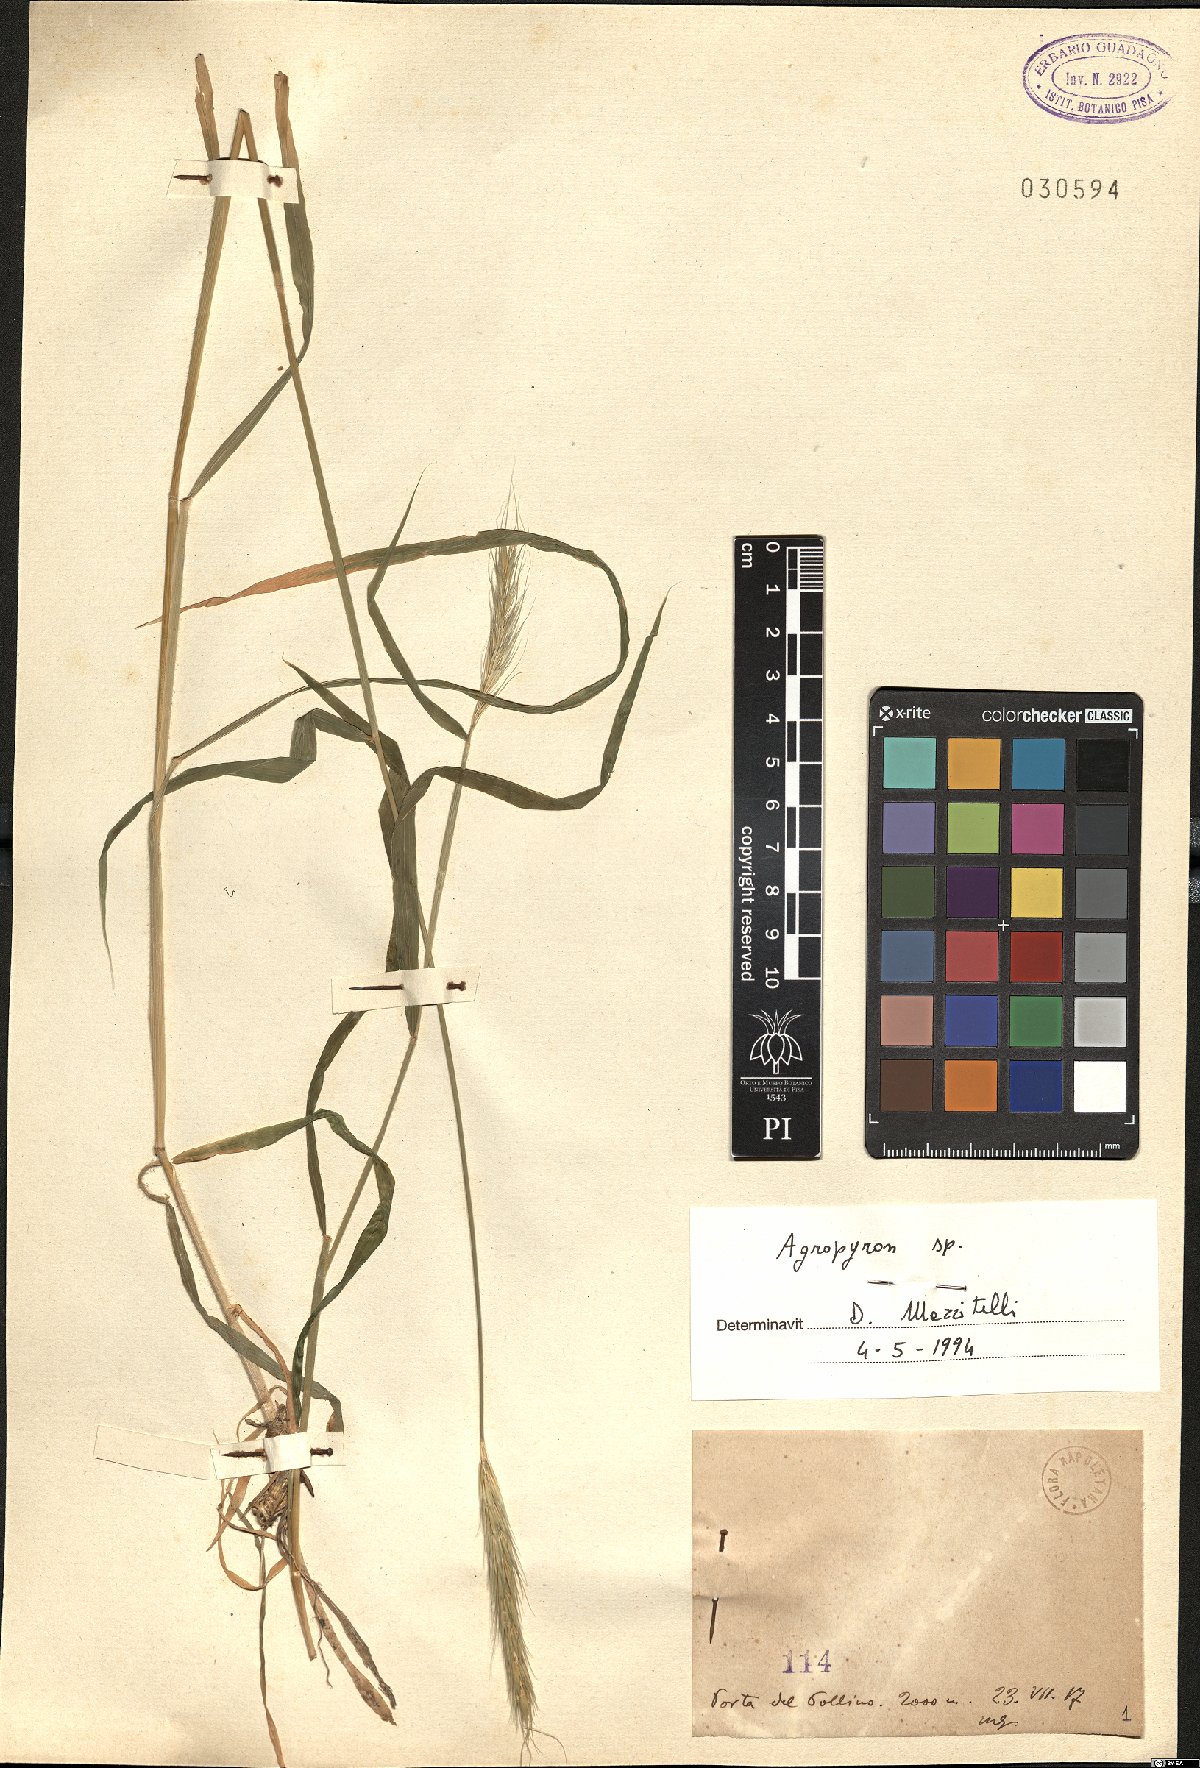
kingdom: Plantae
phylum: Tracheophyta
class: Liliopsida
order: Poales
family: Poaceae
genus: Agropyron
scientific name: Agropyron
